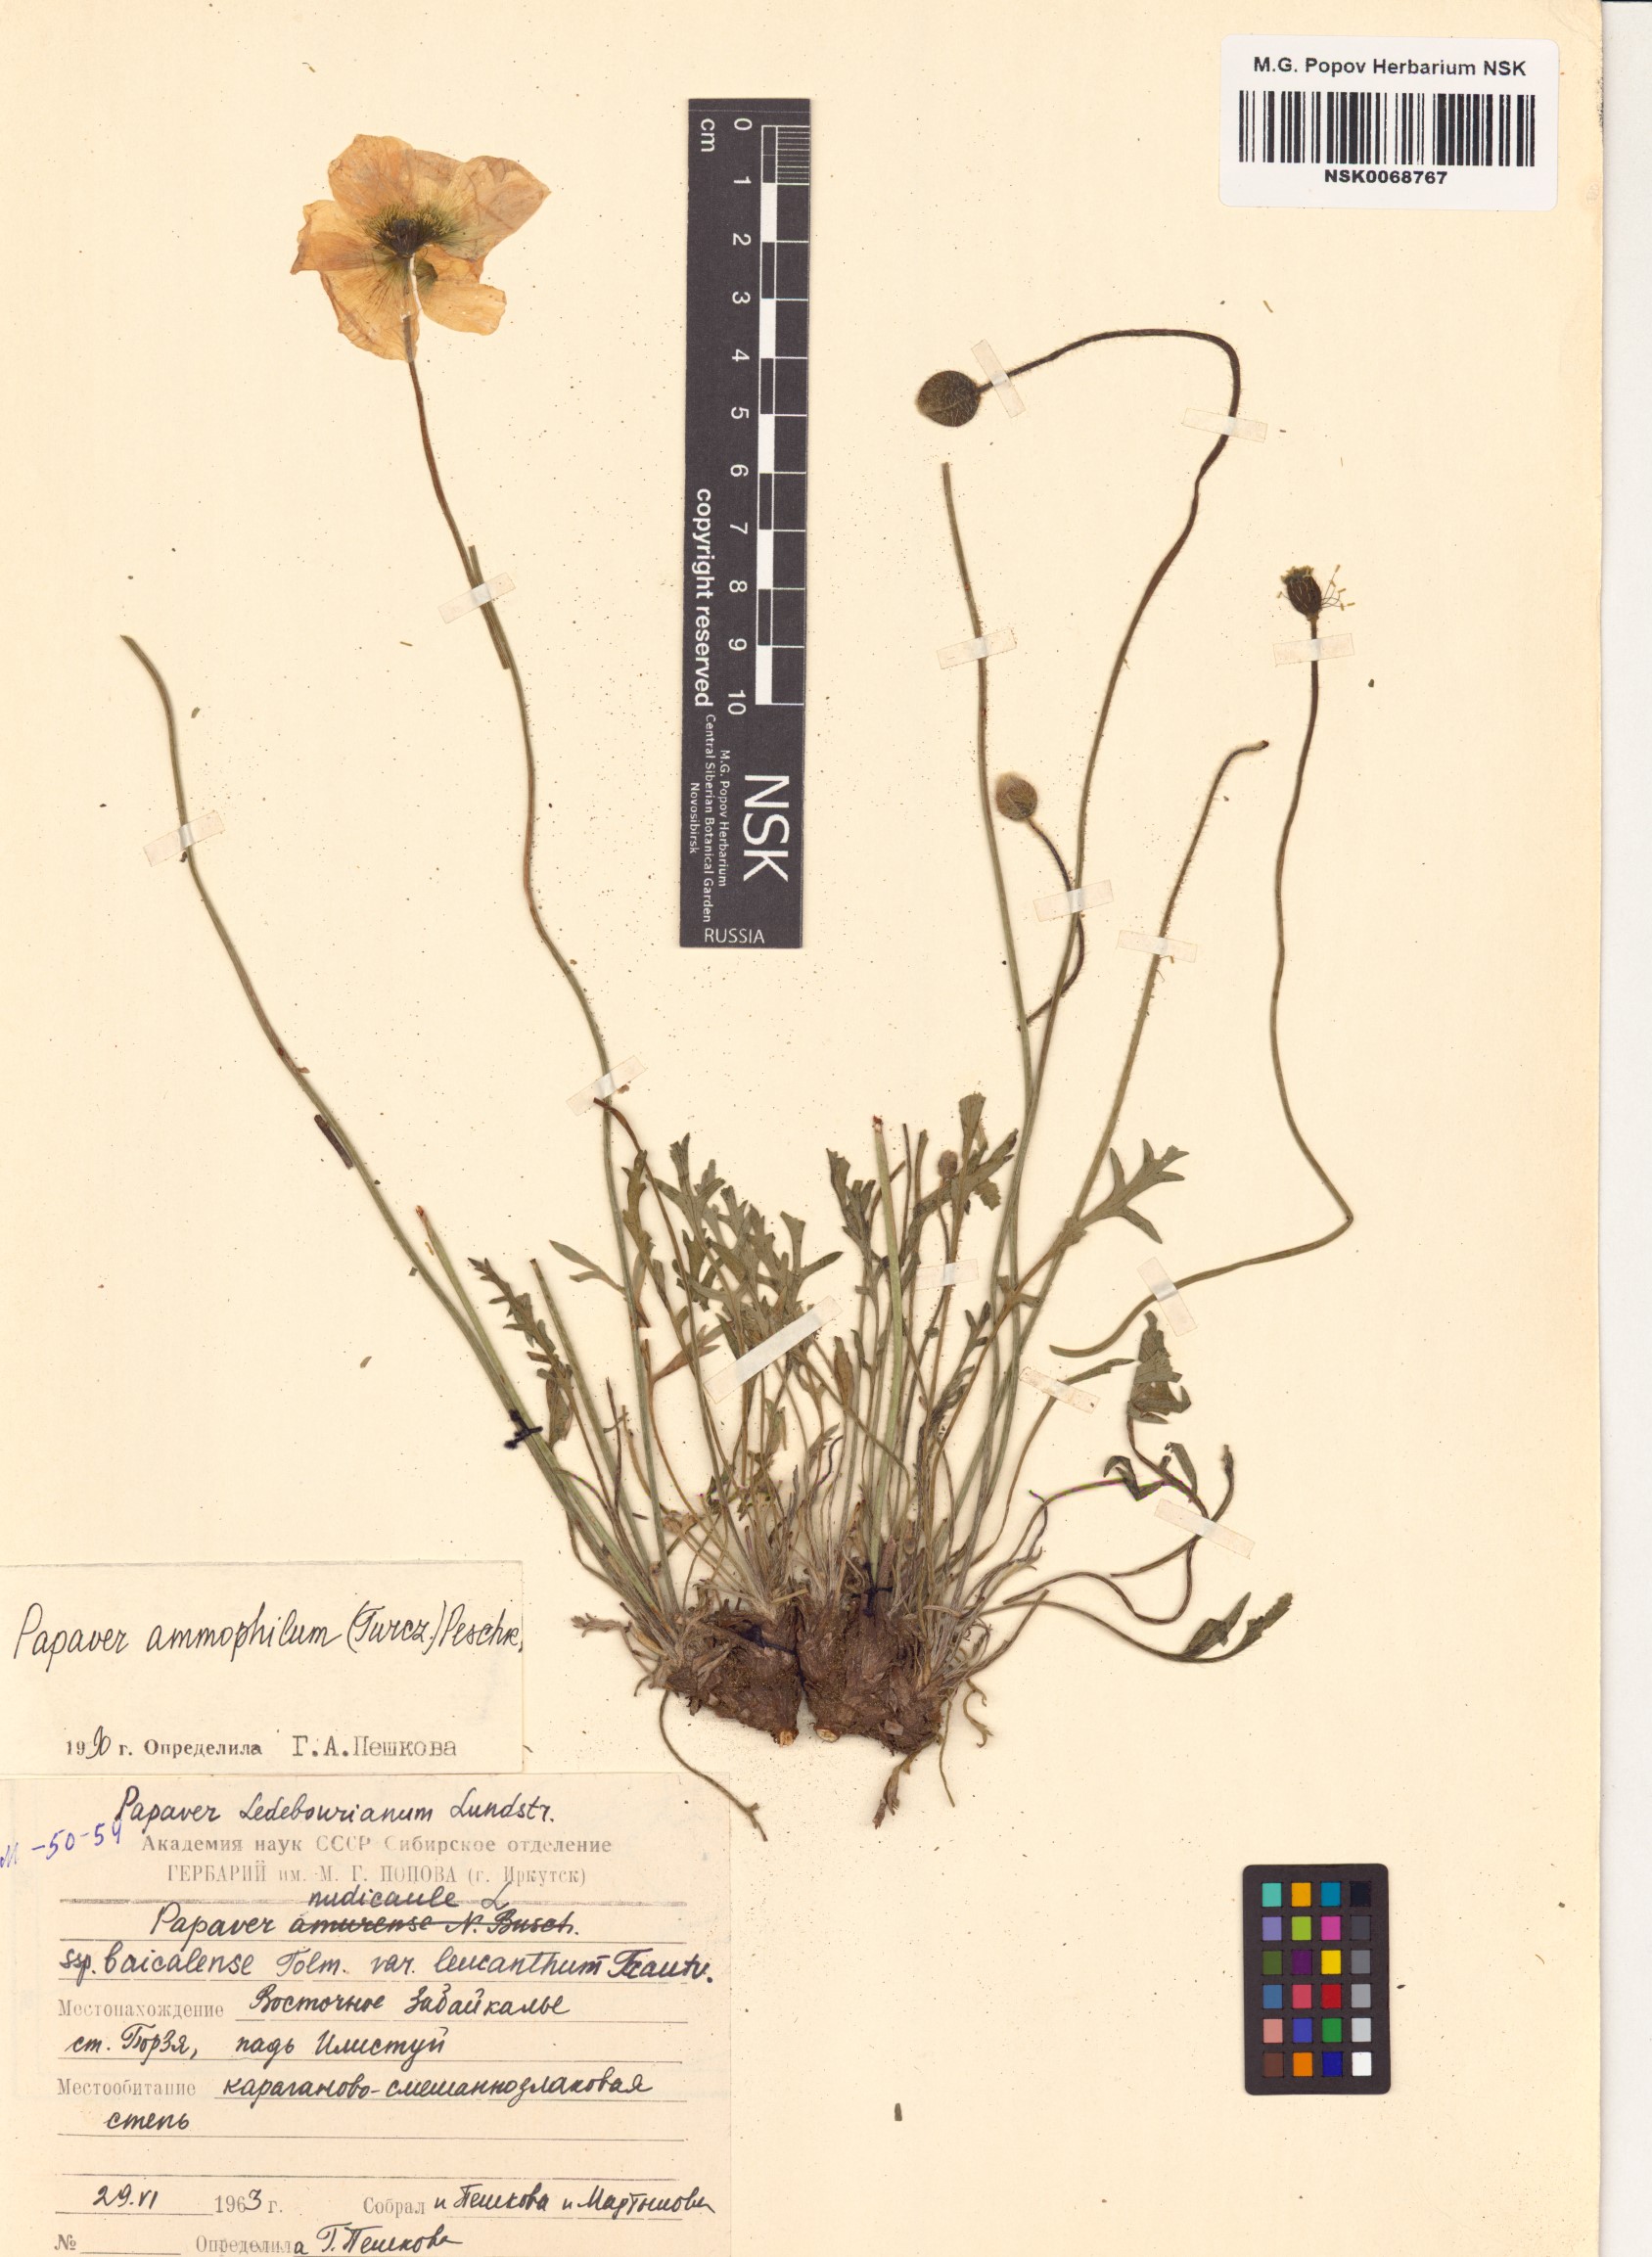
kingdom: Plantae
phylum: Tracheophyta
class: Magnoliopsida
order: Ranunculales
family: Papaveraceae
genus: Papaver
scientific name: Papaver nudicaule
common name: Arctic poppy
